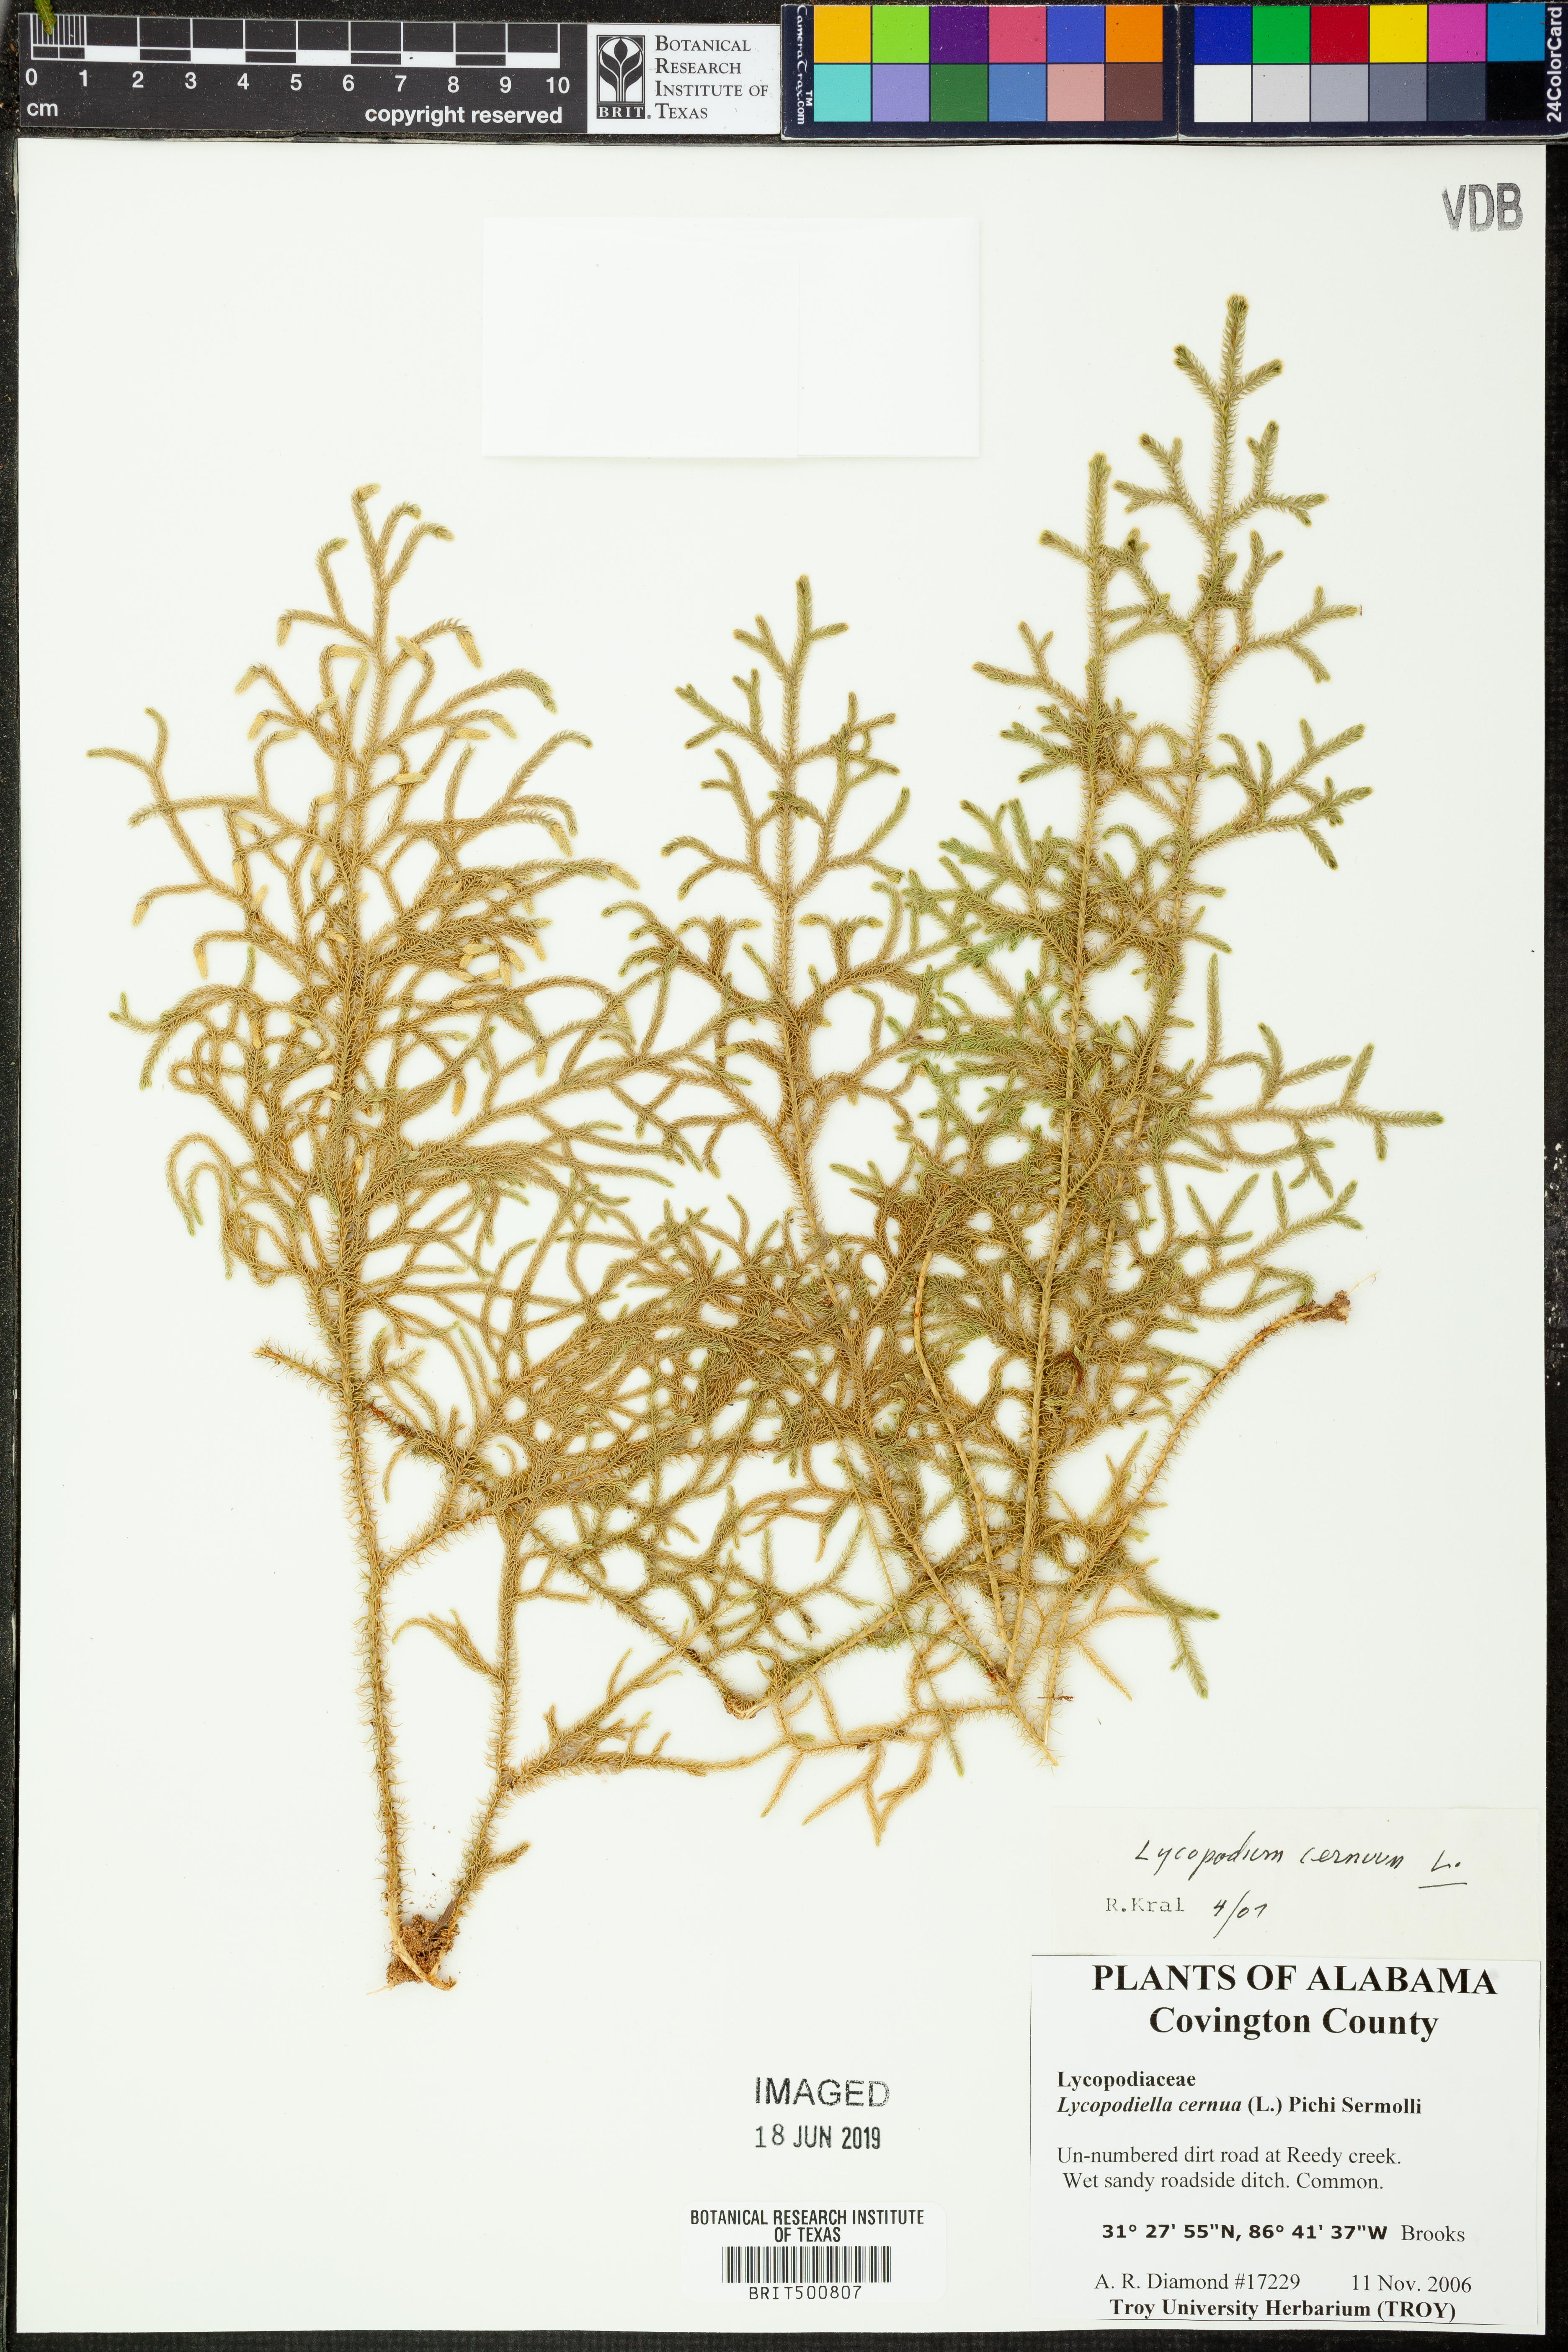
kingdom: Plantae
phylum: Tracheophyta
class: Lycopodiopsida
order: Lycopodiales
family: Lycopodiaceae
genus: Palhinhaea
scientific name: Palhinhaea cernua
